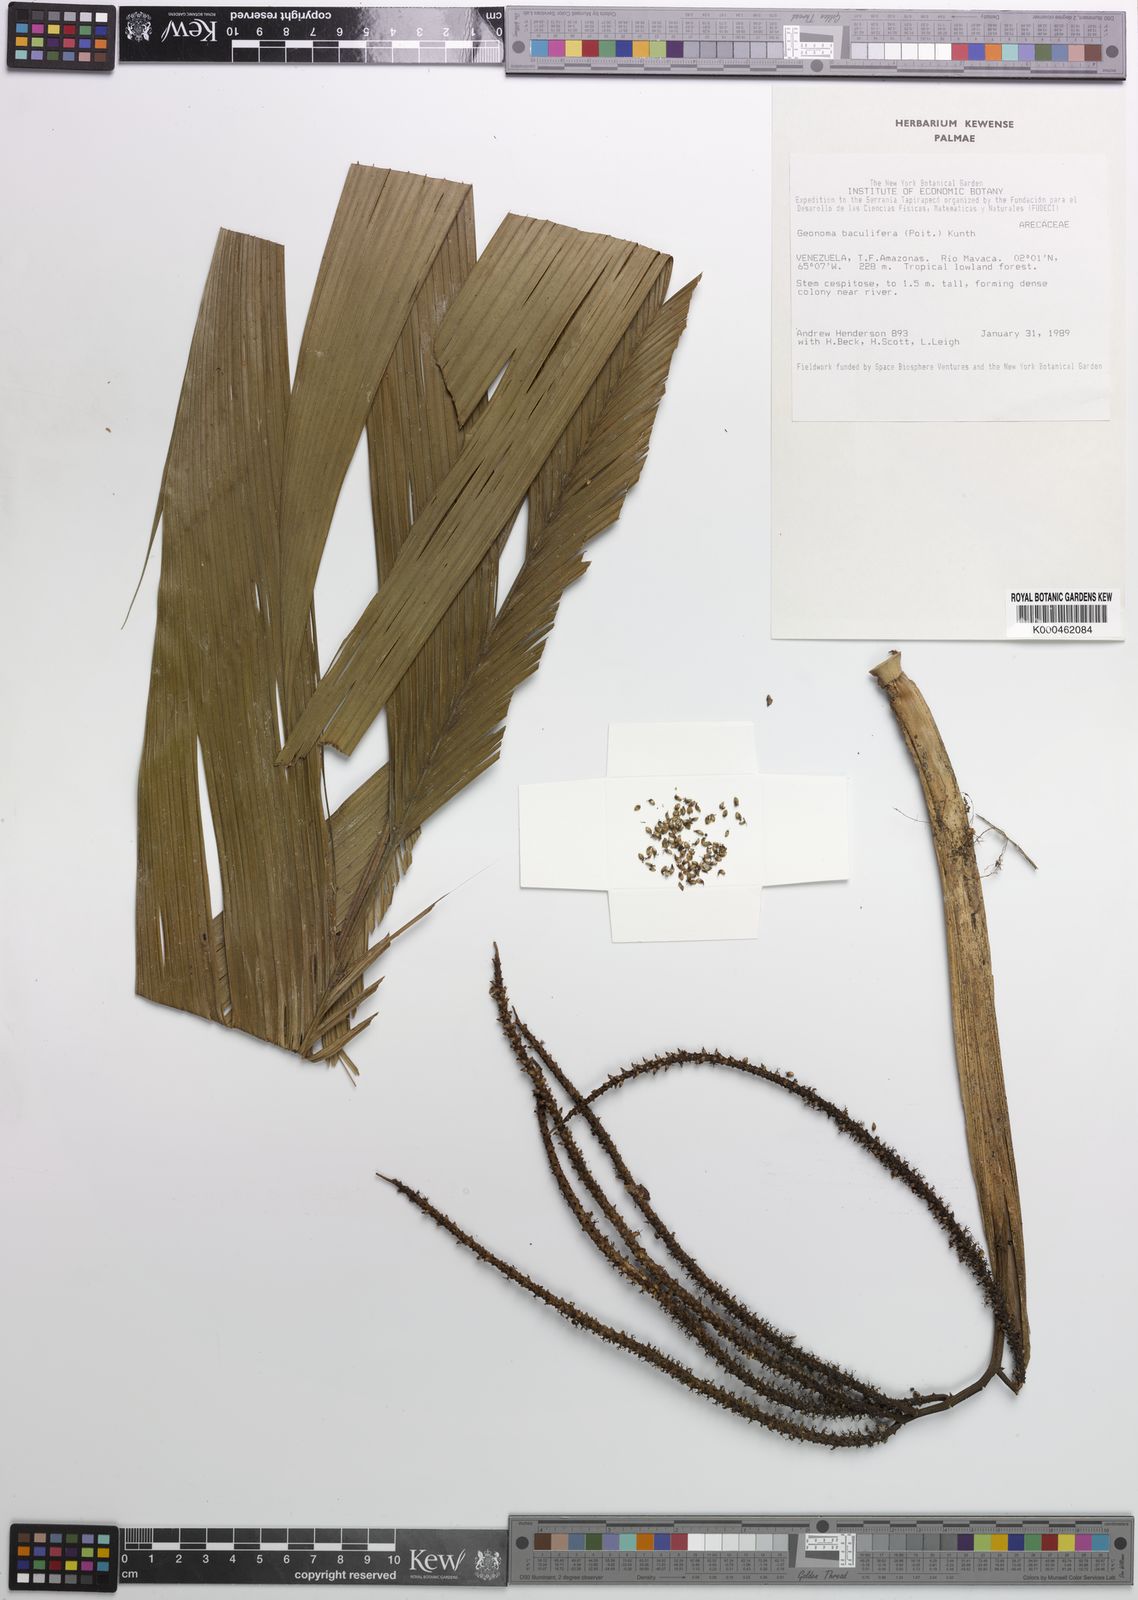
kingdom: Plantae
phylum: Tracheophyta
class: Liliopsida
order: Arecales
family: Arecaceae
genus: Geonoma
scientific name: Geonoma baculifera
